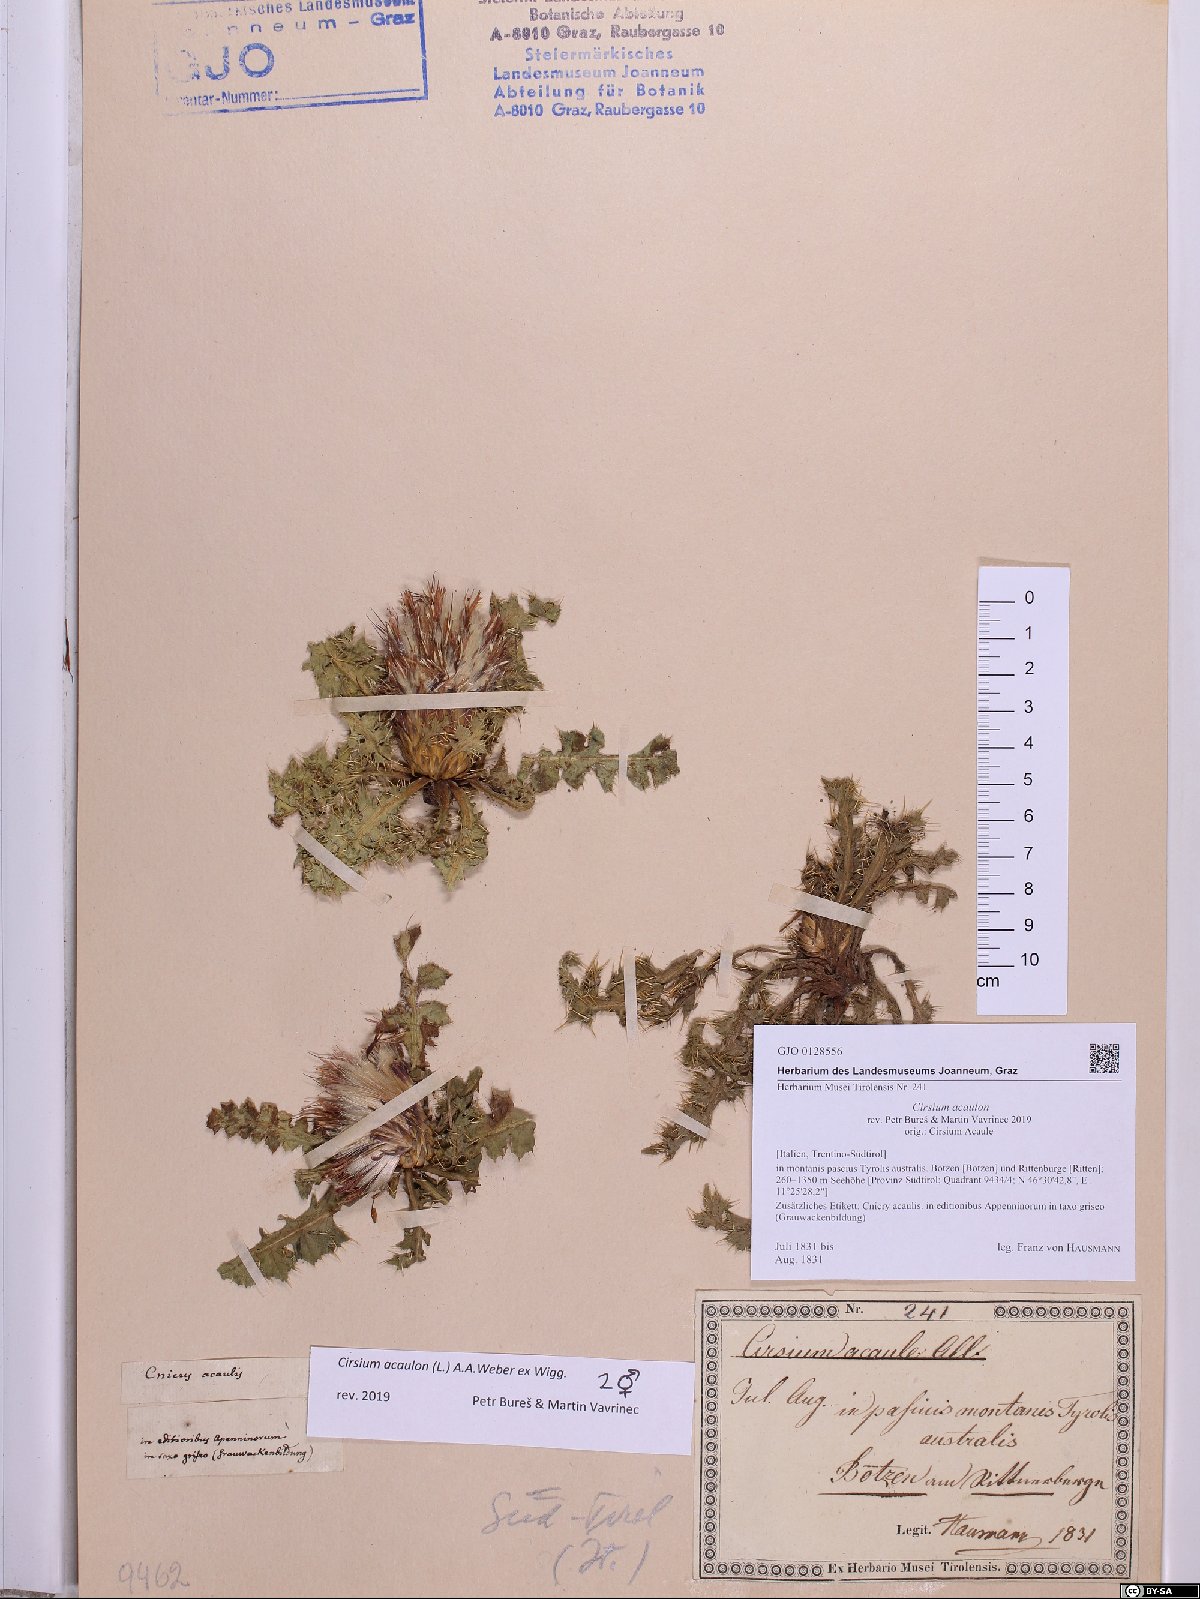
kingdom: Plantae
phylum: Tracheophyta
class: Magnoliopsida
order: Asterales
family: Asteraceae
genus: Cirsium
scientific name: Cirsium acaulon
